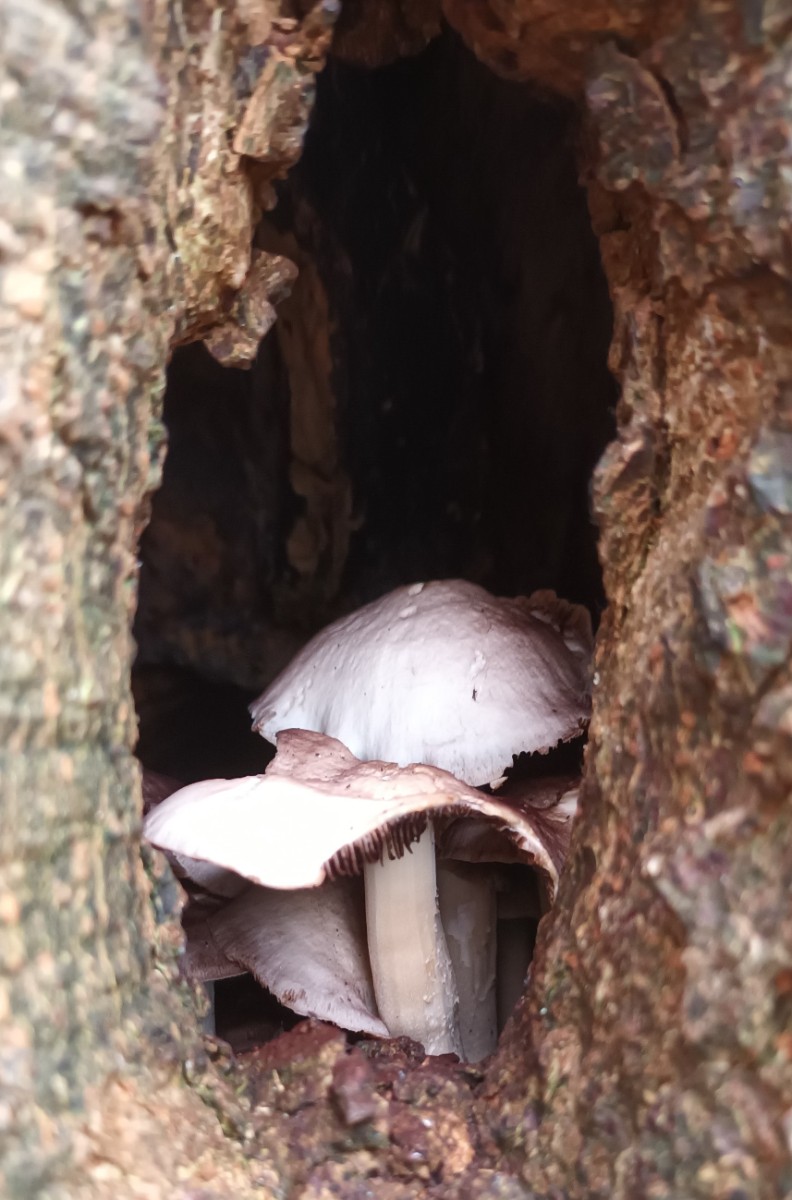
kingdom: Fungi
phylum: Basidiomycota
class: Agaricomycetes
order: Agaricales
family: Psathyrellaceae
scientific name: Psathyrellaceae
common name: mørkhatfamilien
